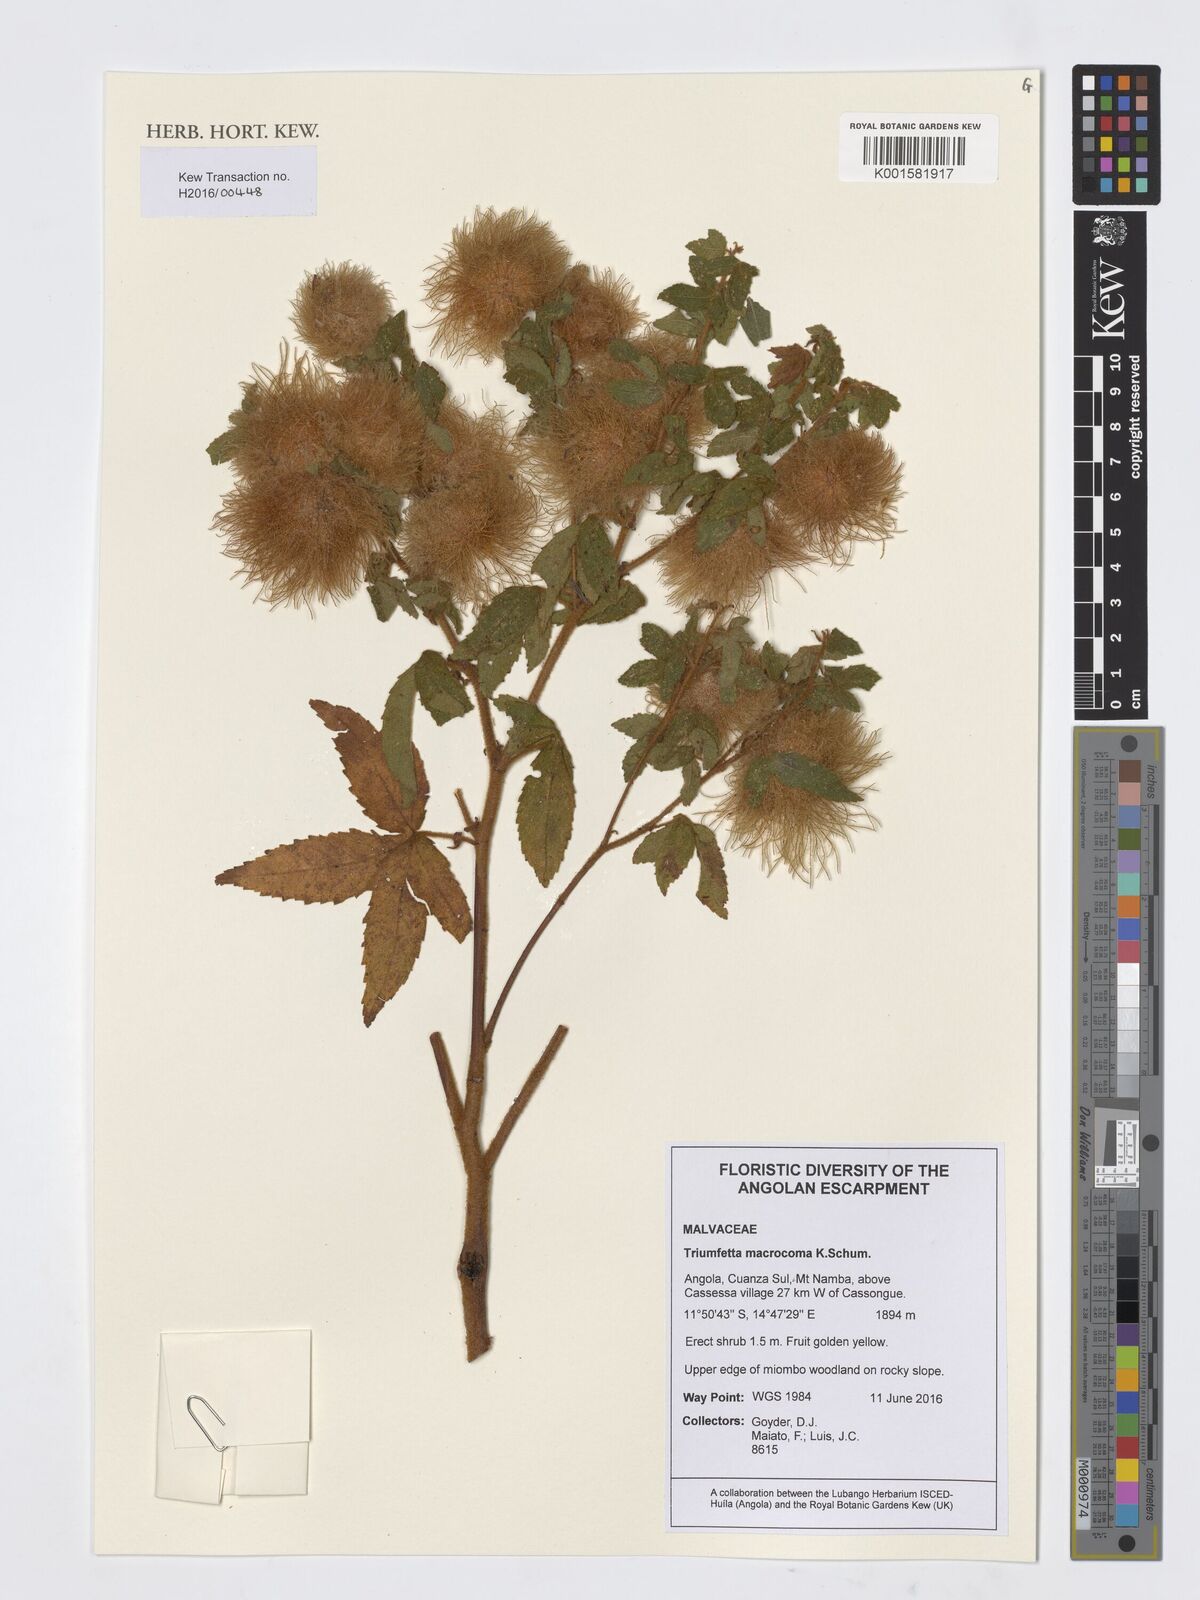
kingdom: Plantae
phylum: Tracheophyta
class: Magnoliopsida
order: Malvales
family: Malvaceae
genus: Triumfetta
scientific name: Triumfetta macrocoma
